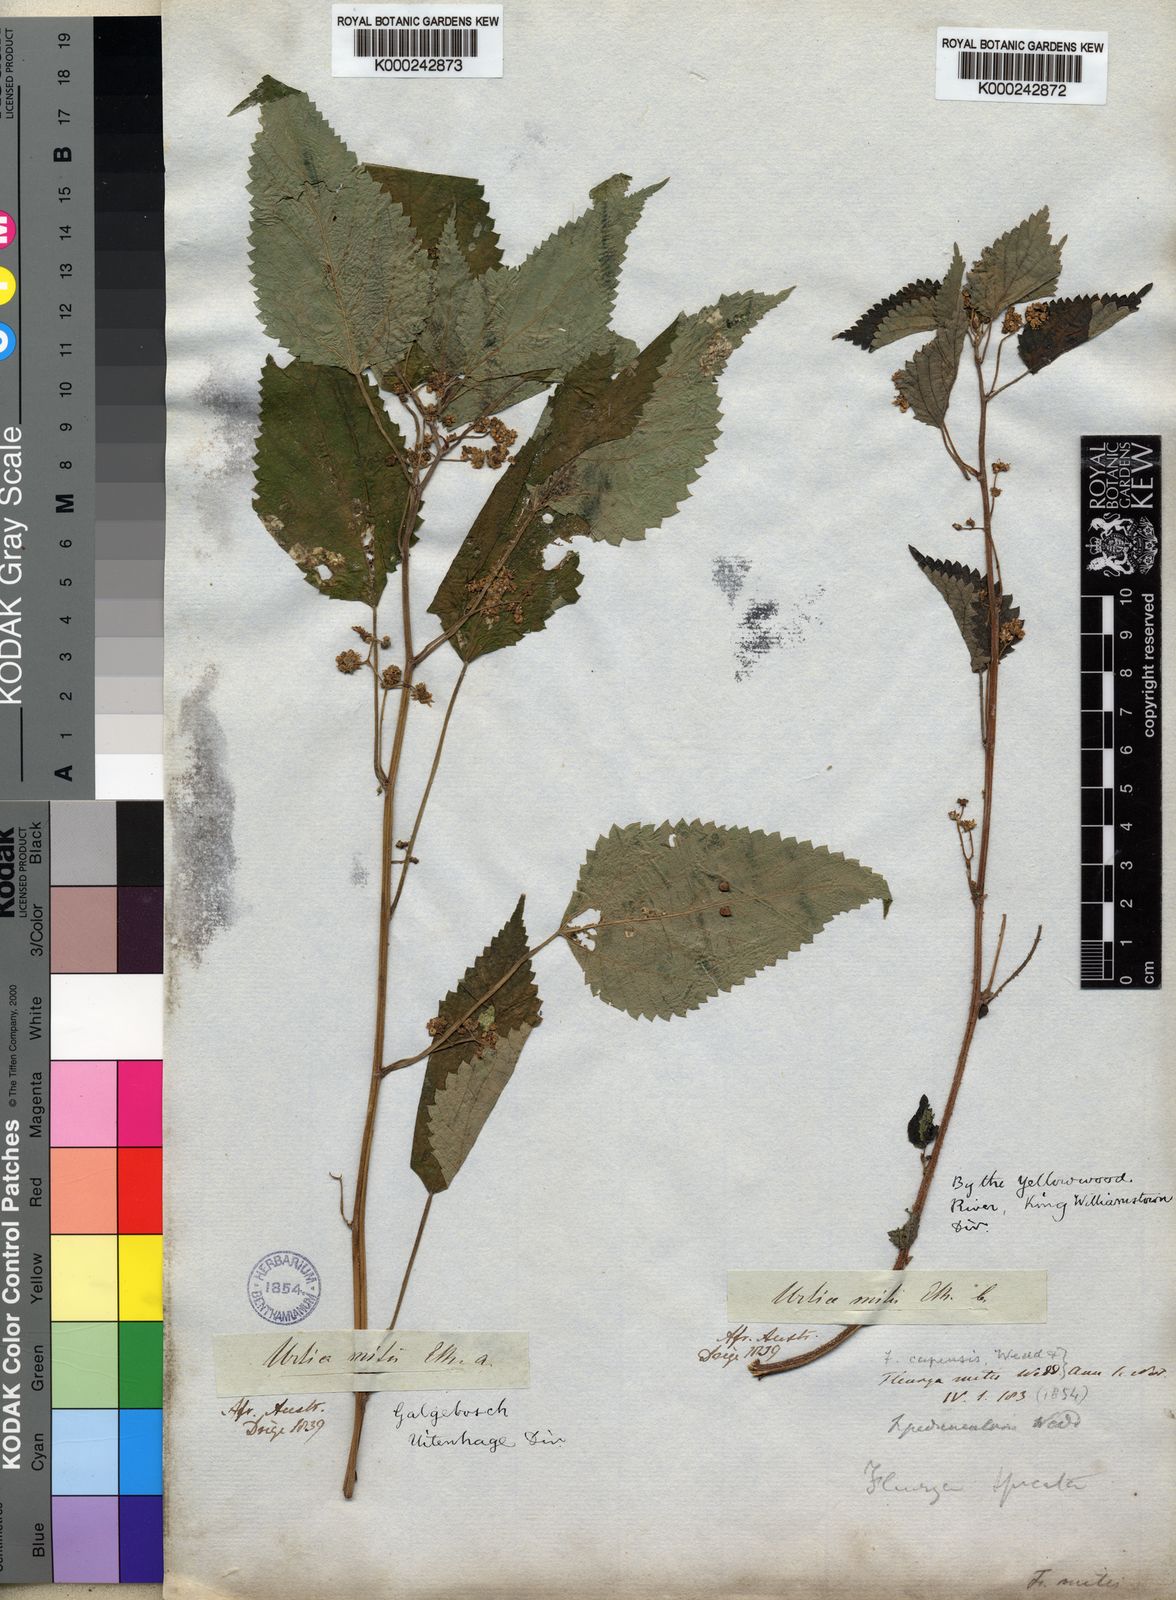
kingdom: Plantae
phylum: Tracheophyta
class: Magnoliopsida
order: Rosales
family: Urticaceae
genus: Laportea
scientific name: Laportea peduncularis
